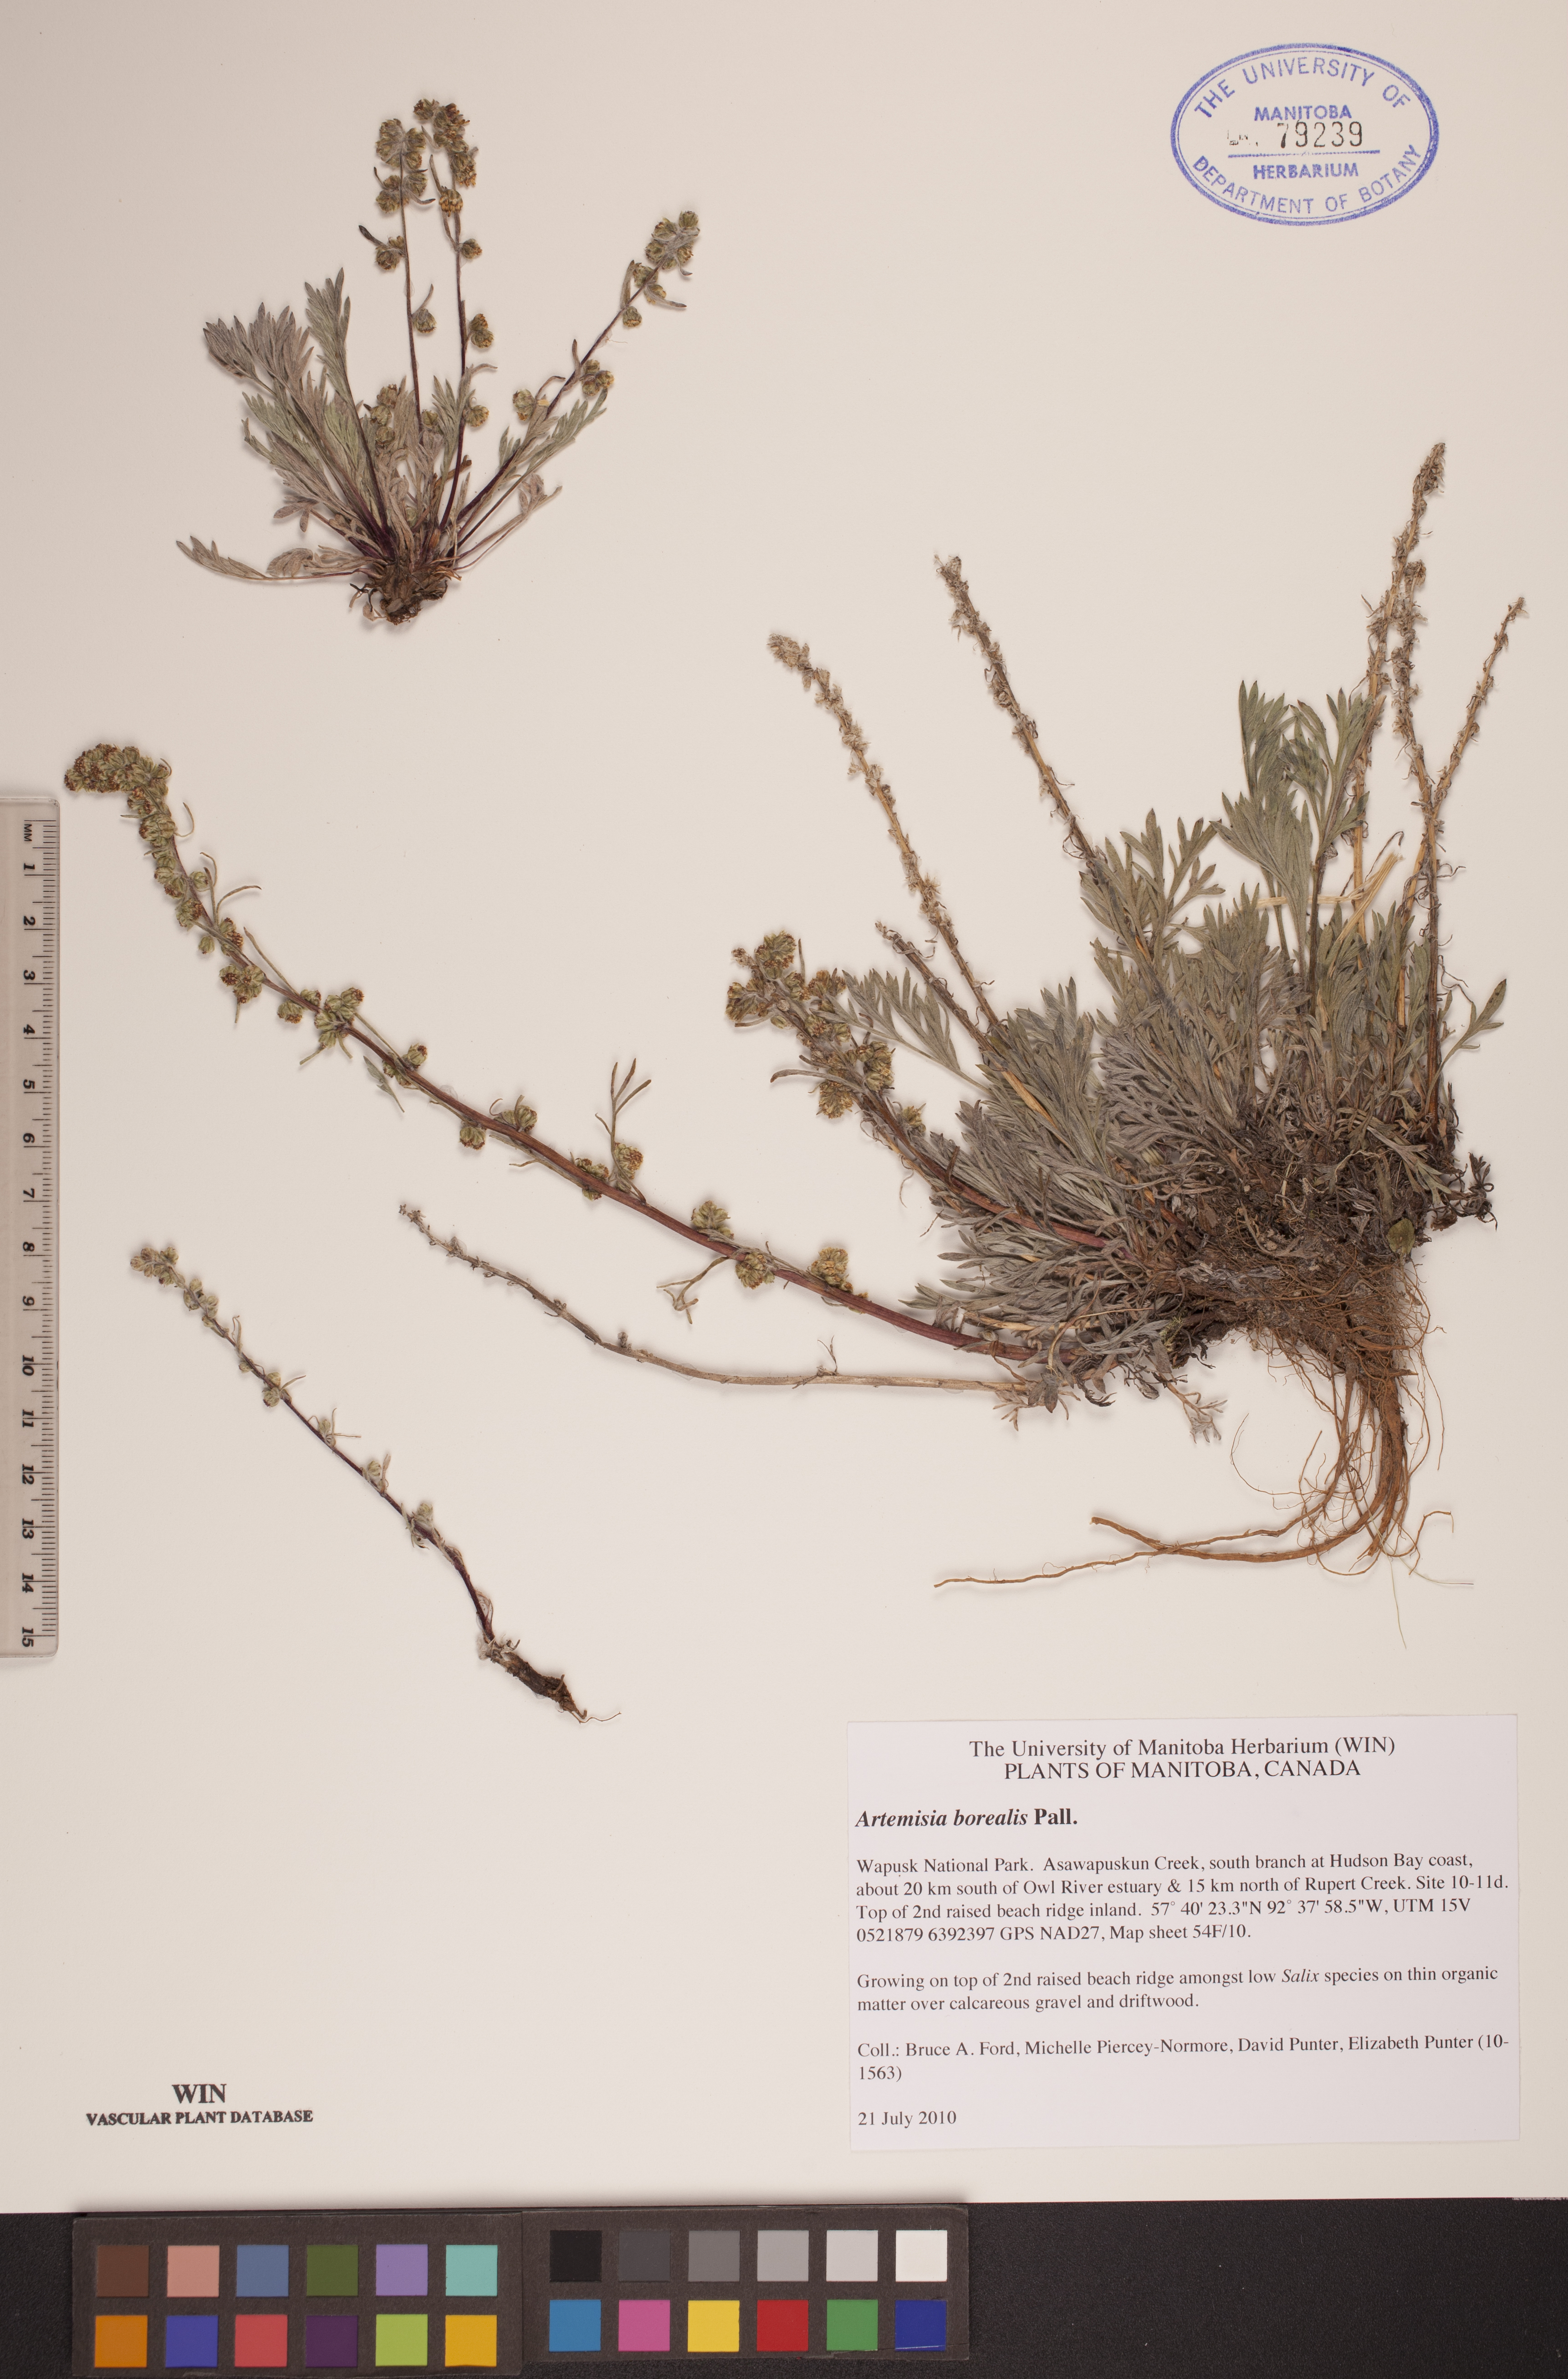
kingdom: Plantae
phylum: Tracheophyta
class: Magnoliopsida
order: Asterales
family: Asteraceae
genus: Artemisia
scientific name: Artemisia borealis
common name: Boreal sage
